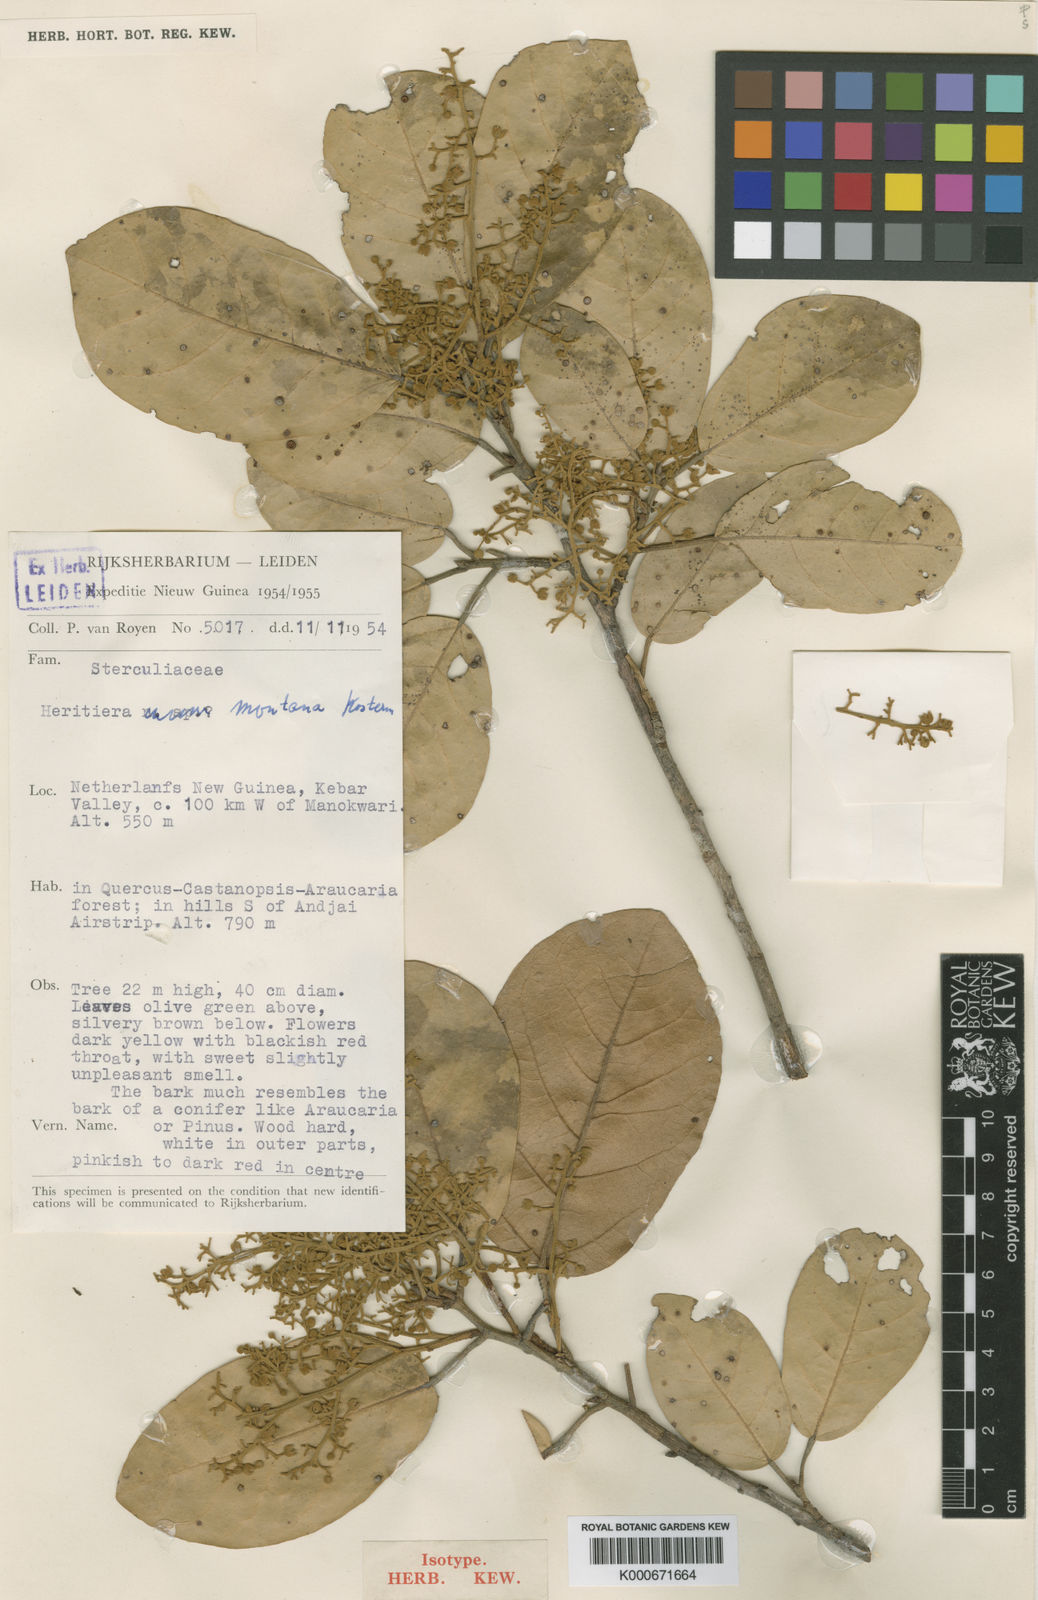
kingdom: Plantae
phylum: Tracheophyta
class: Magnoliopsida
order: Malvales
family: Malvaceae
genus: Heritiera
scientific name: Heritiera montana
